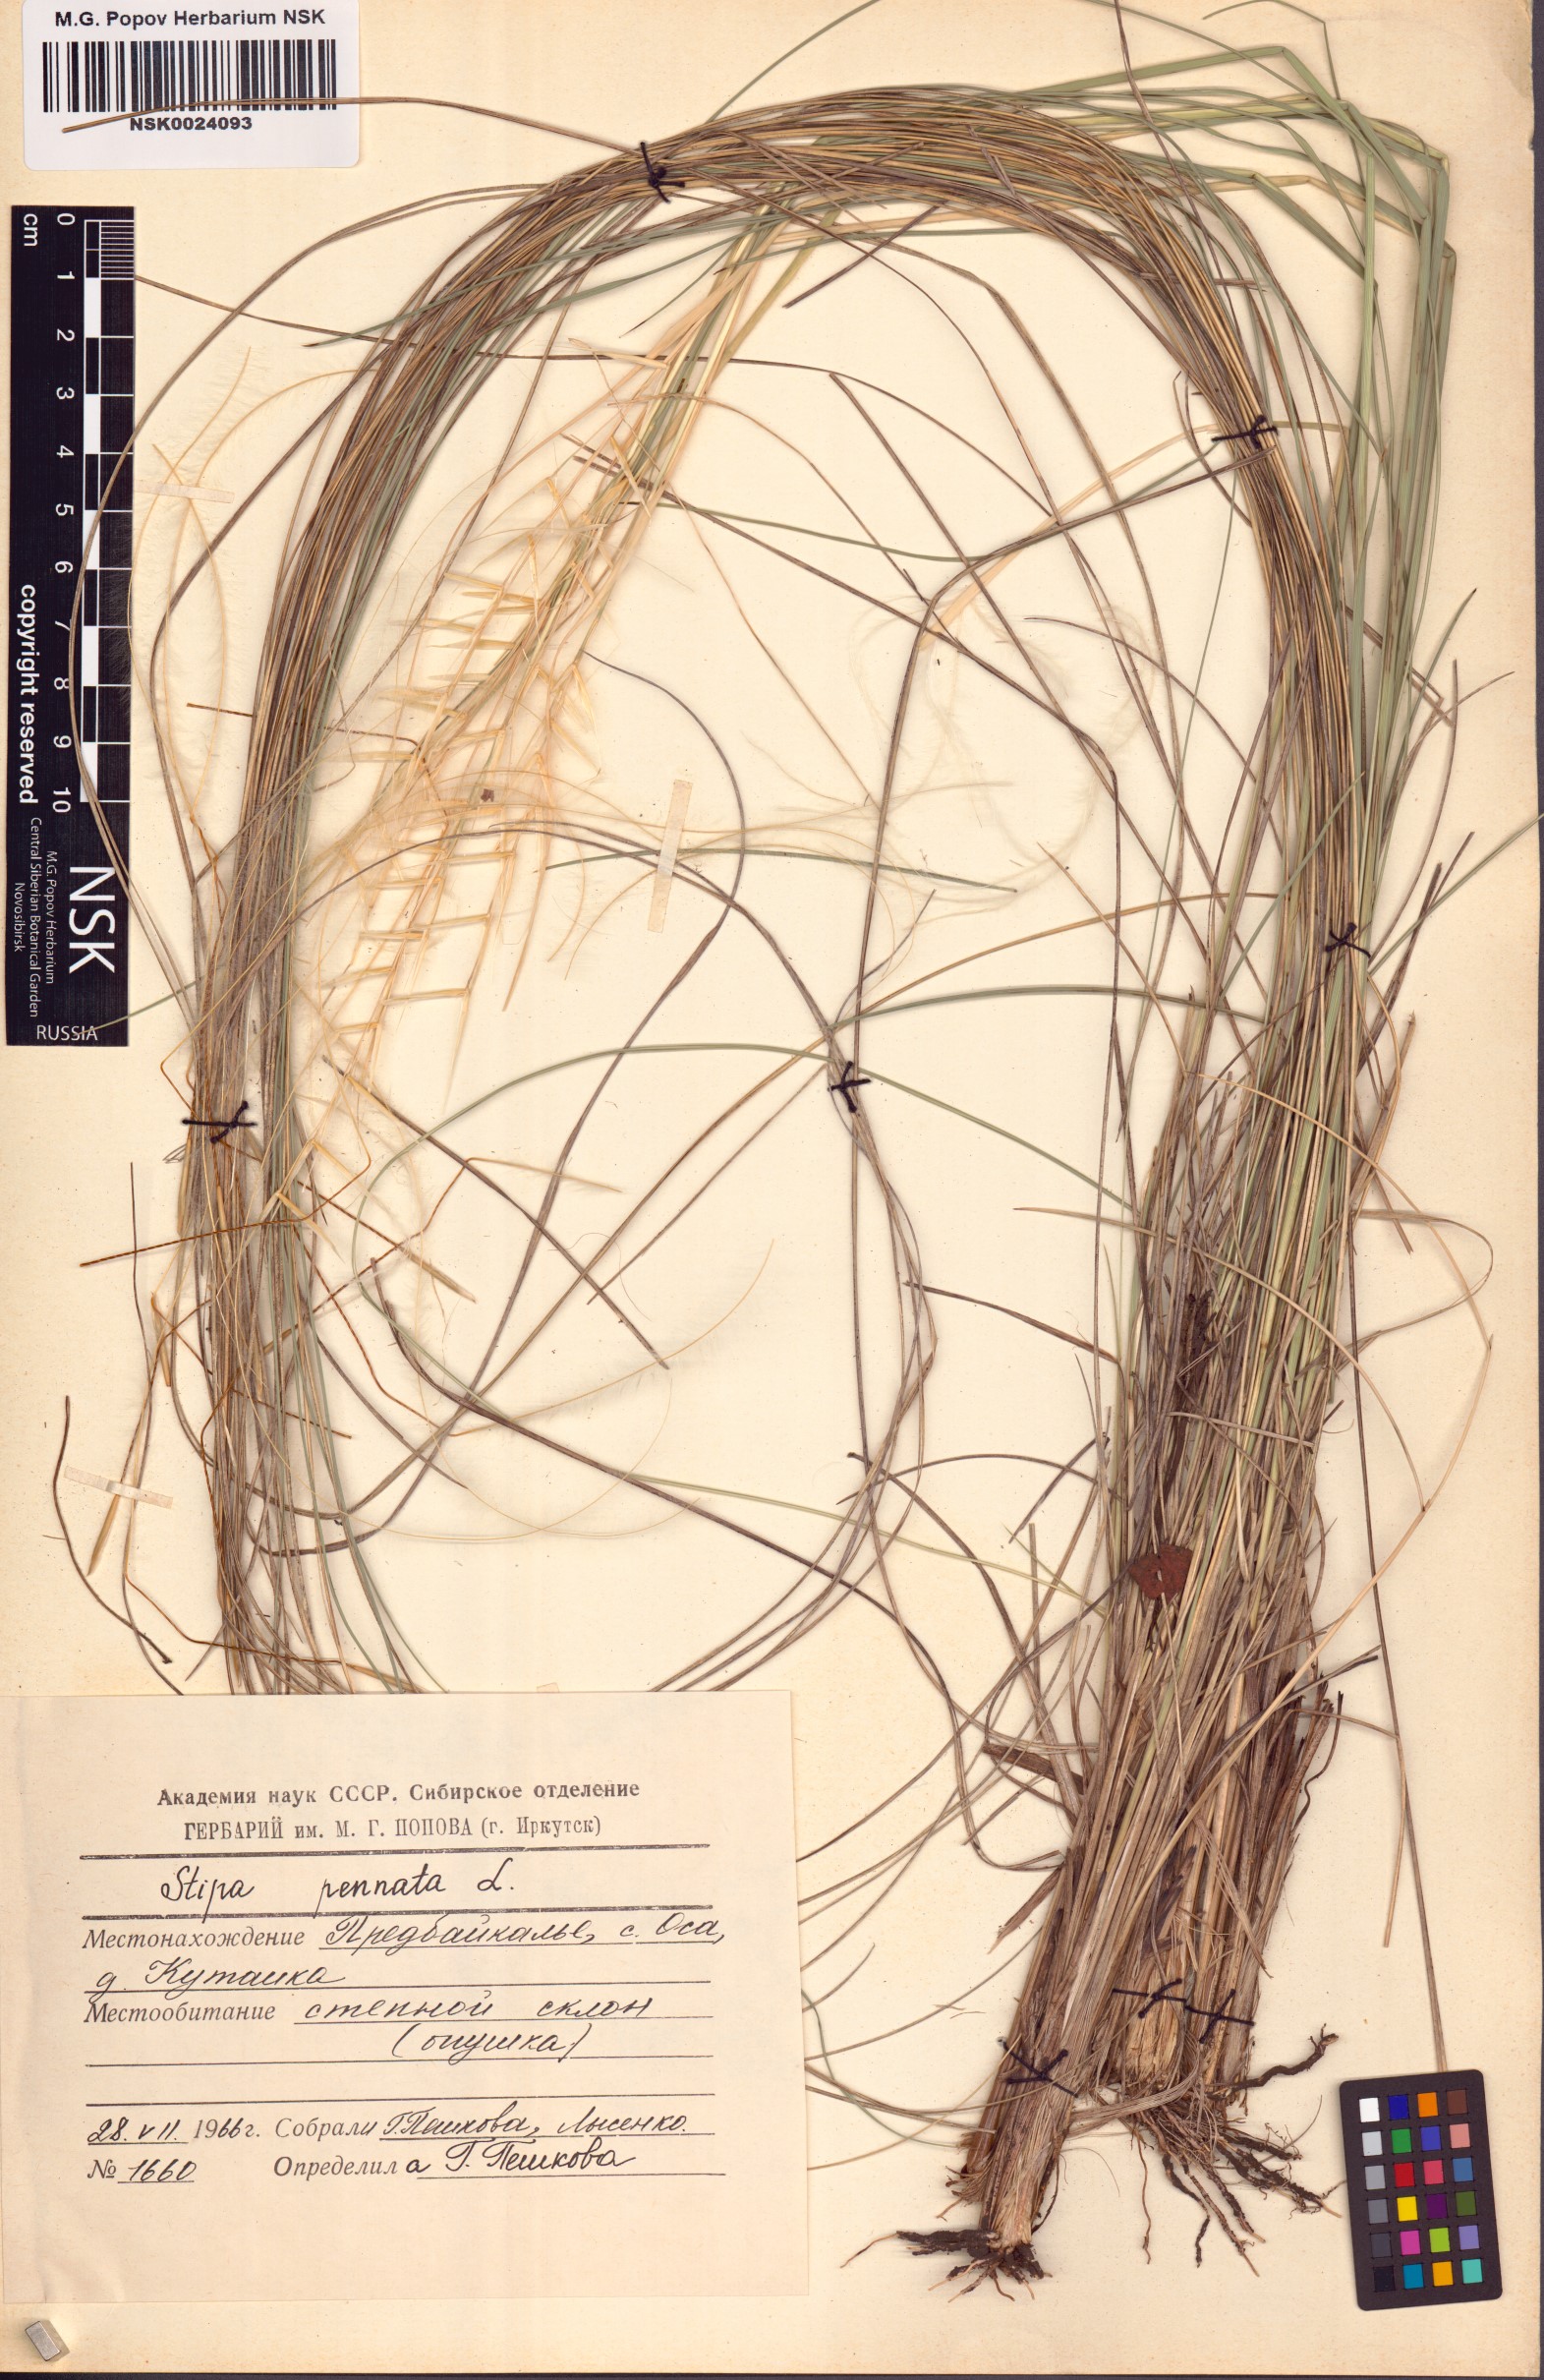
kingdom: Plantae
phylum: Tracheophyta
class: Liliopsida
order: Poales
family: Poaceae
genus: Stipa
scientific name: Stipa pennata
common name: European feather grass
